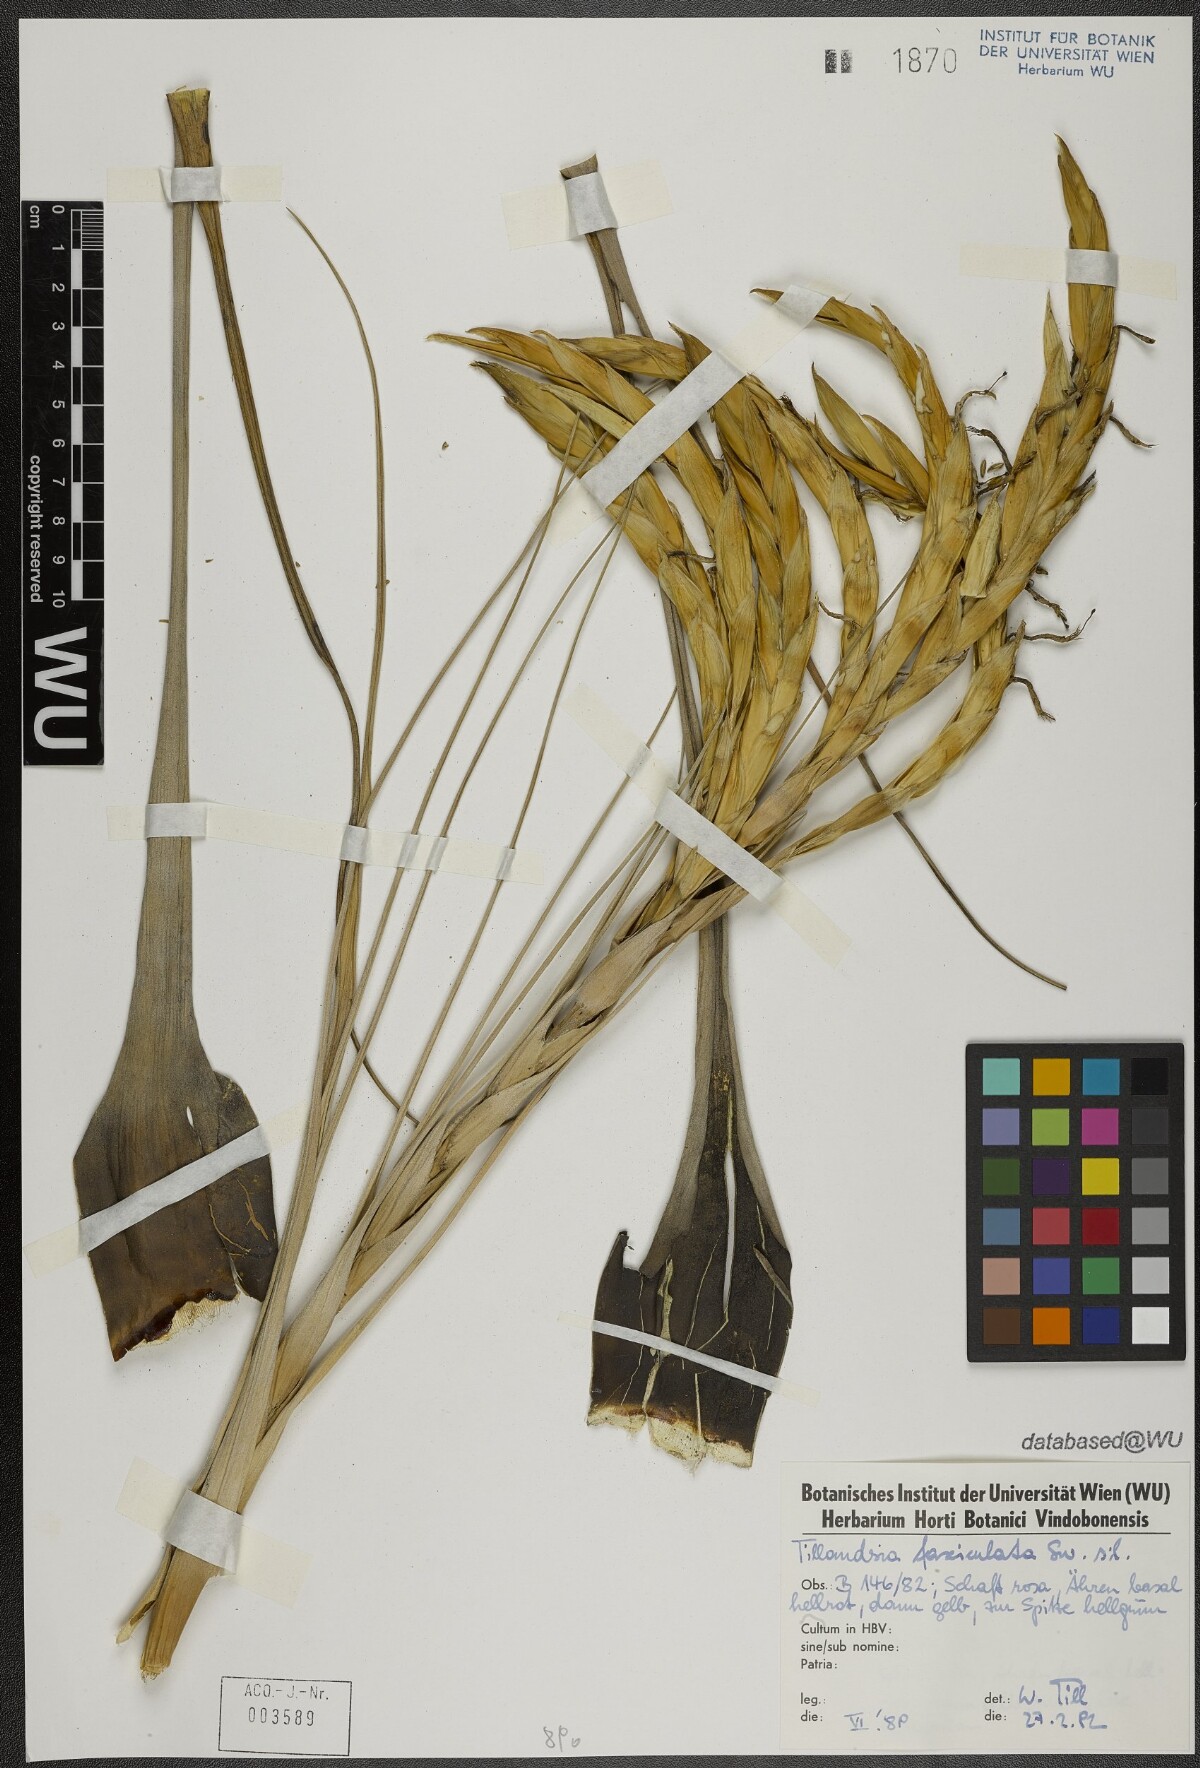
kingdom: Plantae
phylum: Tracheophyta
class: Liliopsida
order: Poales
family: Bromeliaceae
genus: Tillandsia
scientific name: Tillandsia fasciculata
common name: Giant airplant
